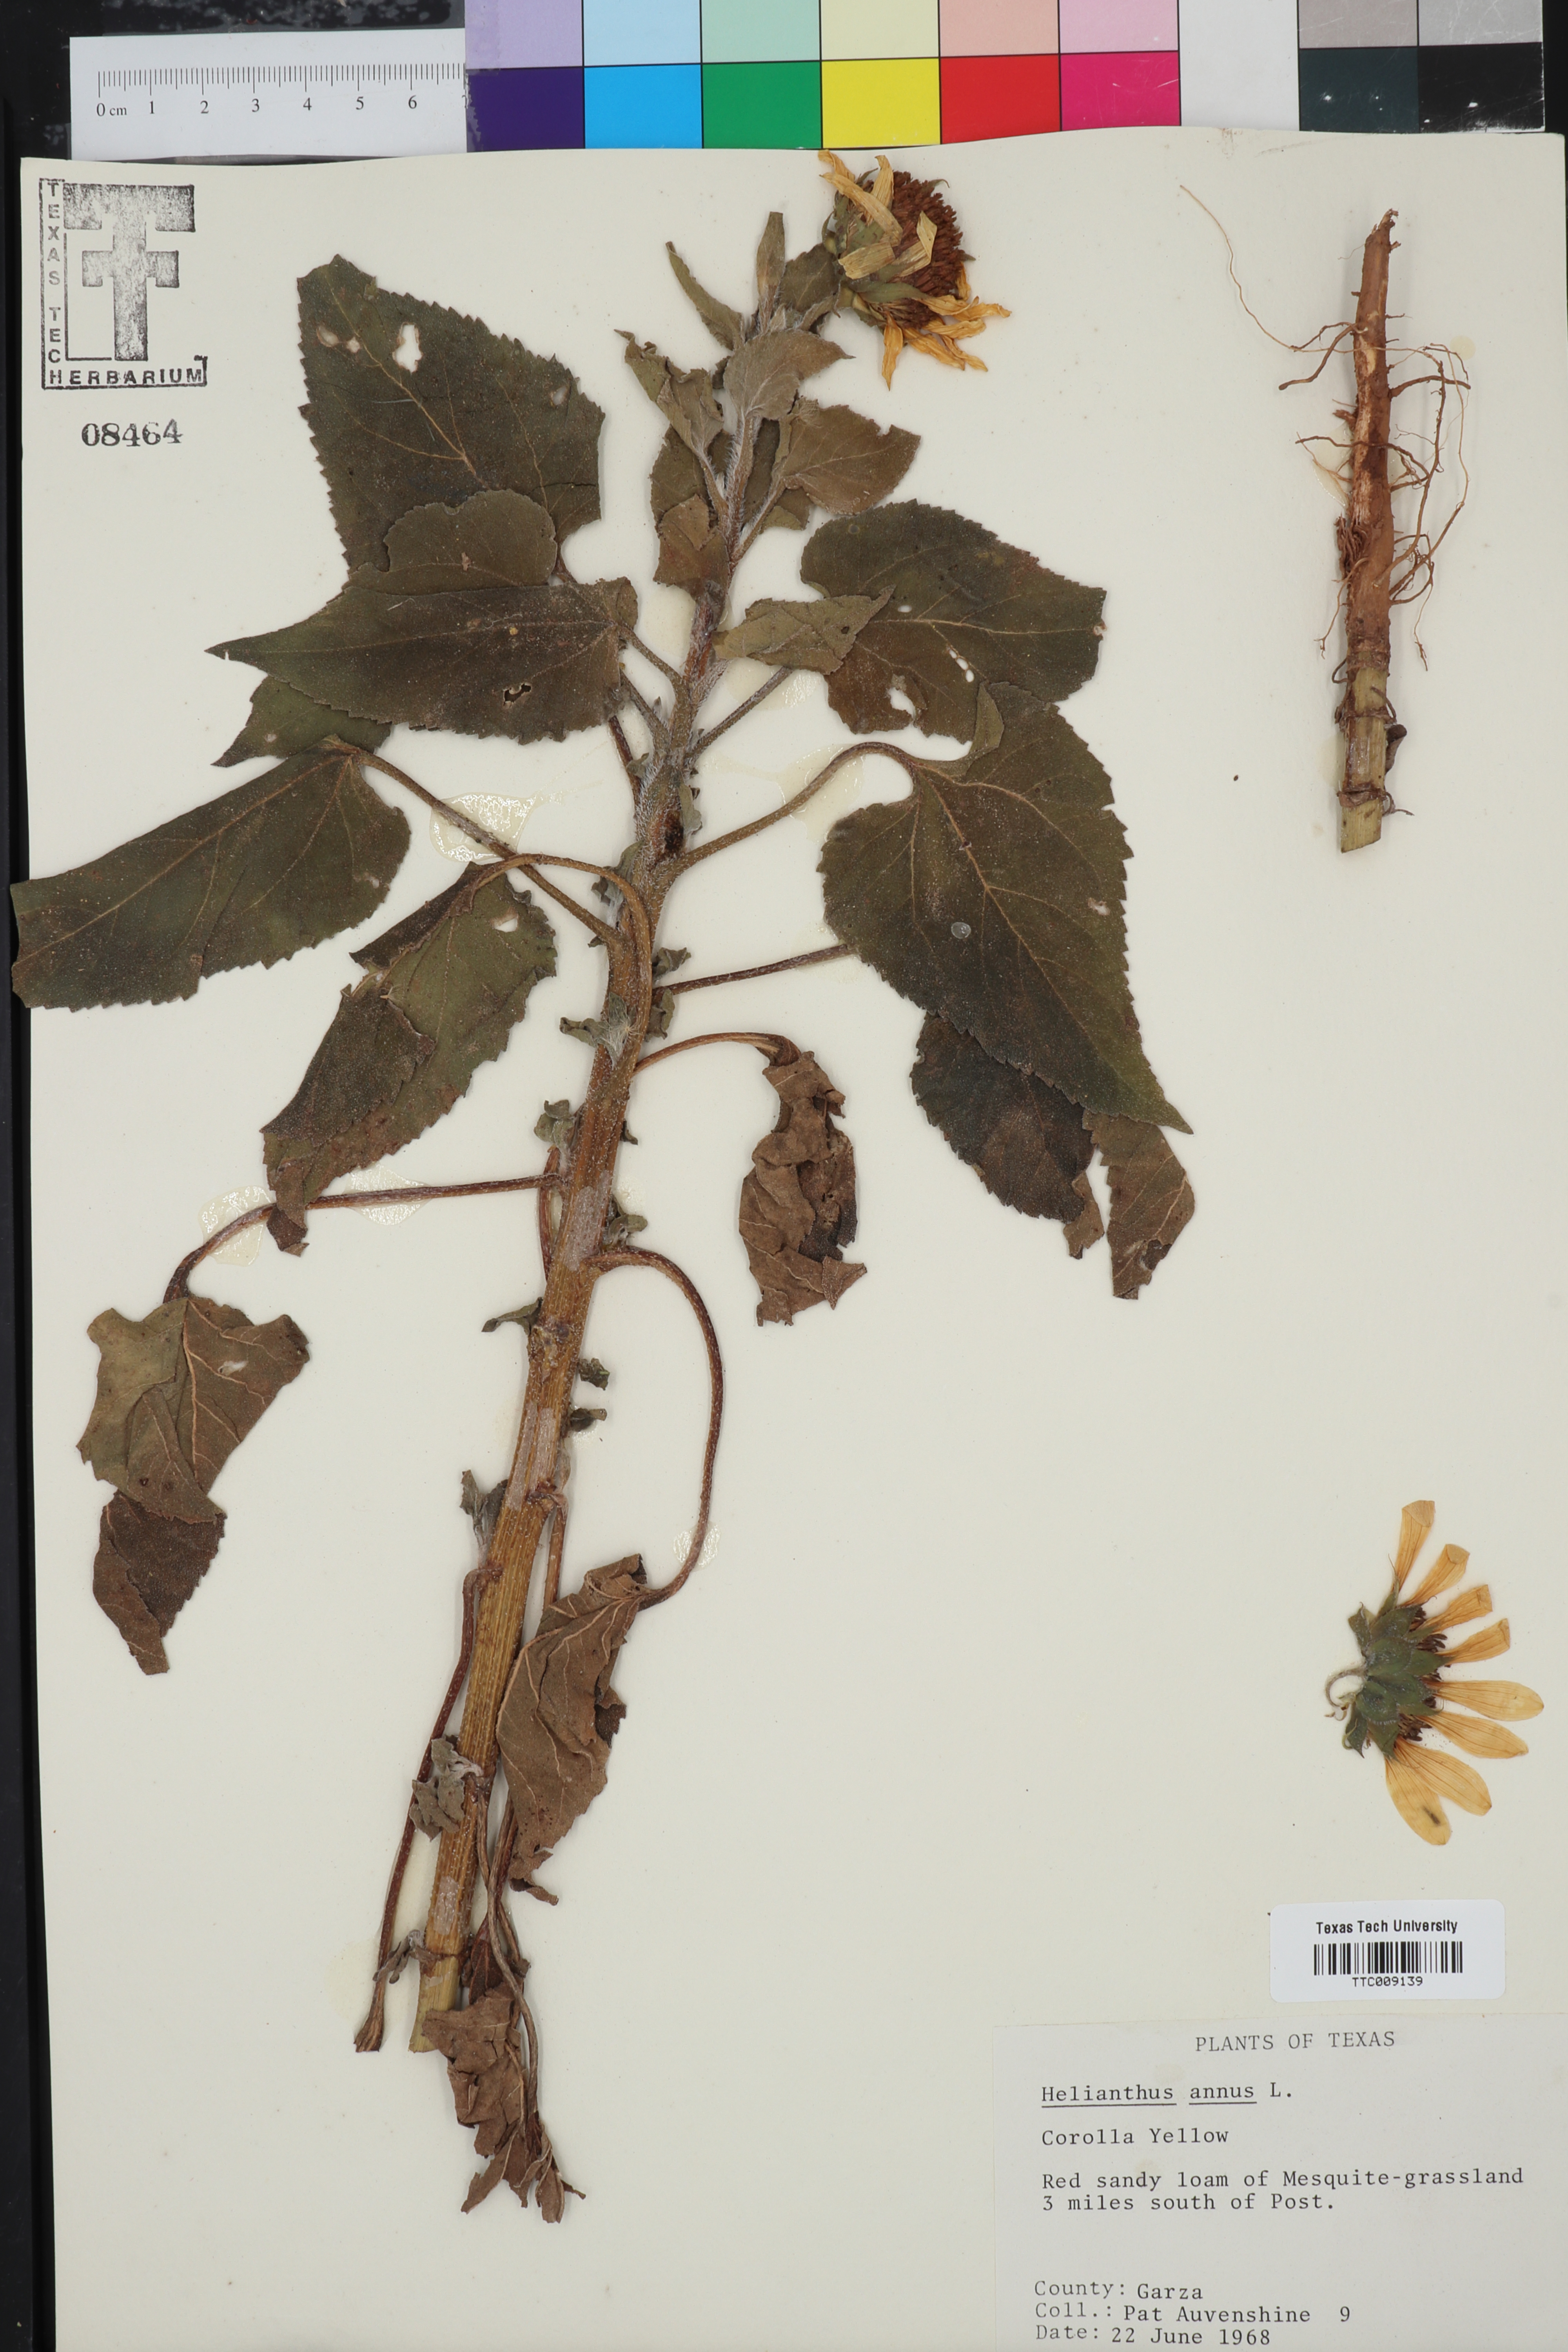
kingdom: Plantae
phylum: Tracheophyta
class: Magnoliopsida
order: Asterales
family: Asteraceae
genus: Helianthus
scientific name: Helianthus annuus
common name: Sunflower
